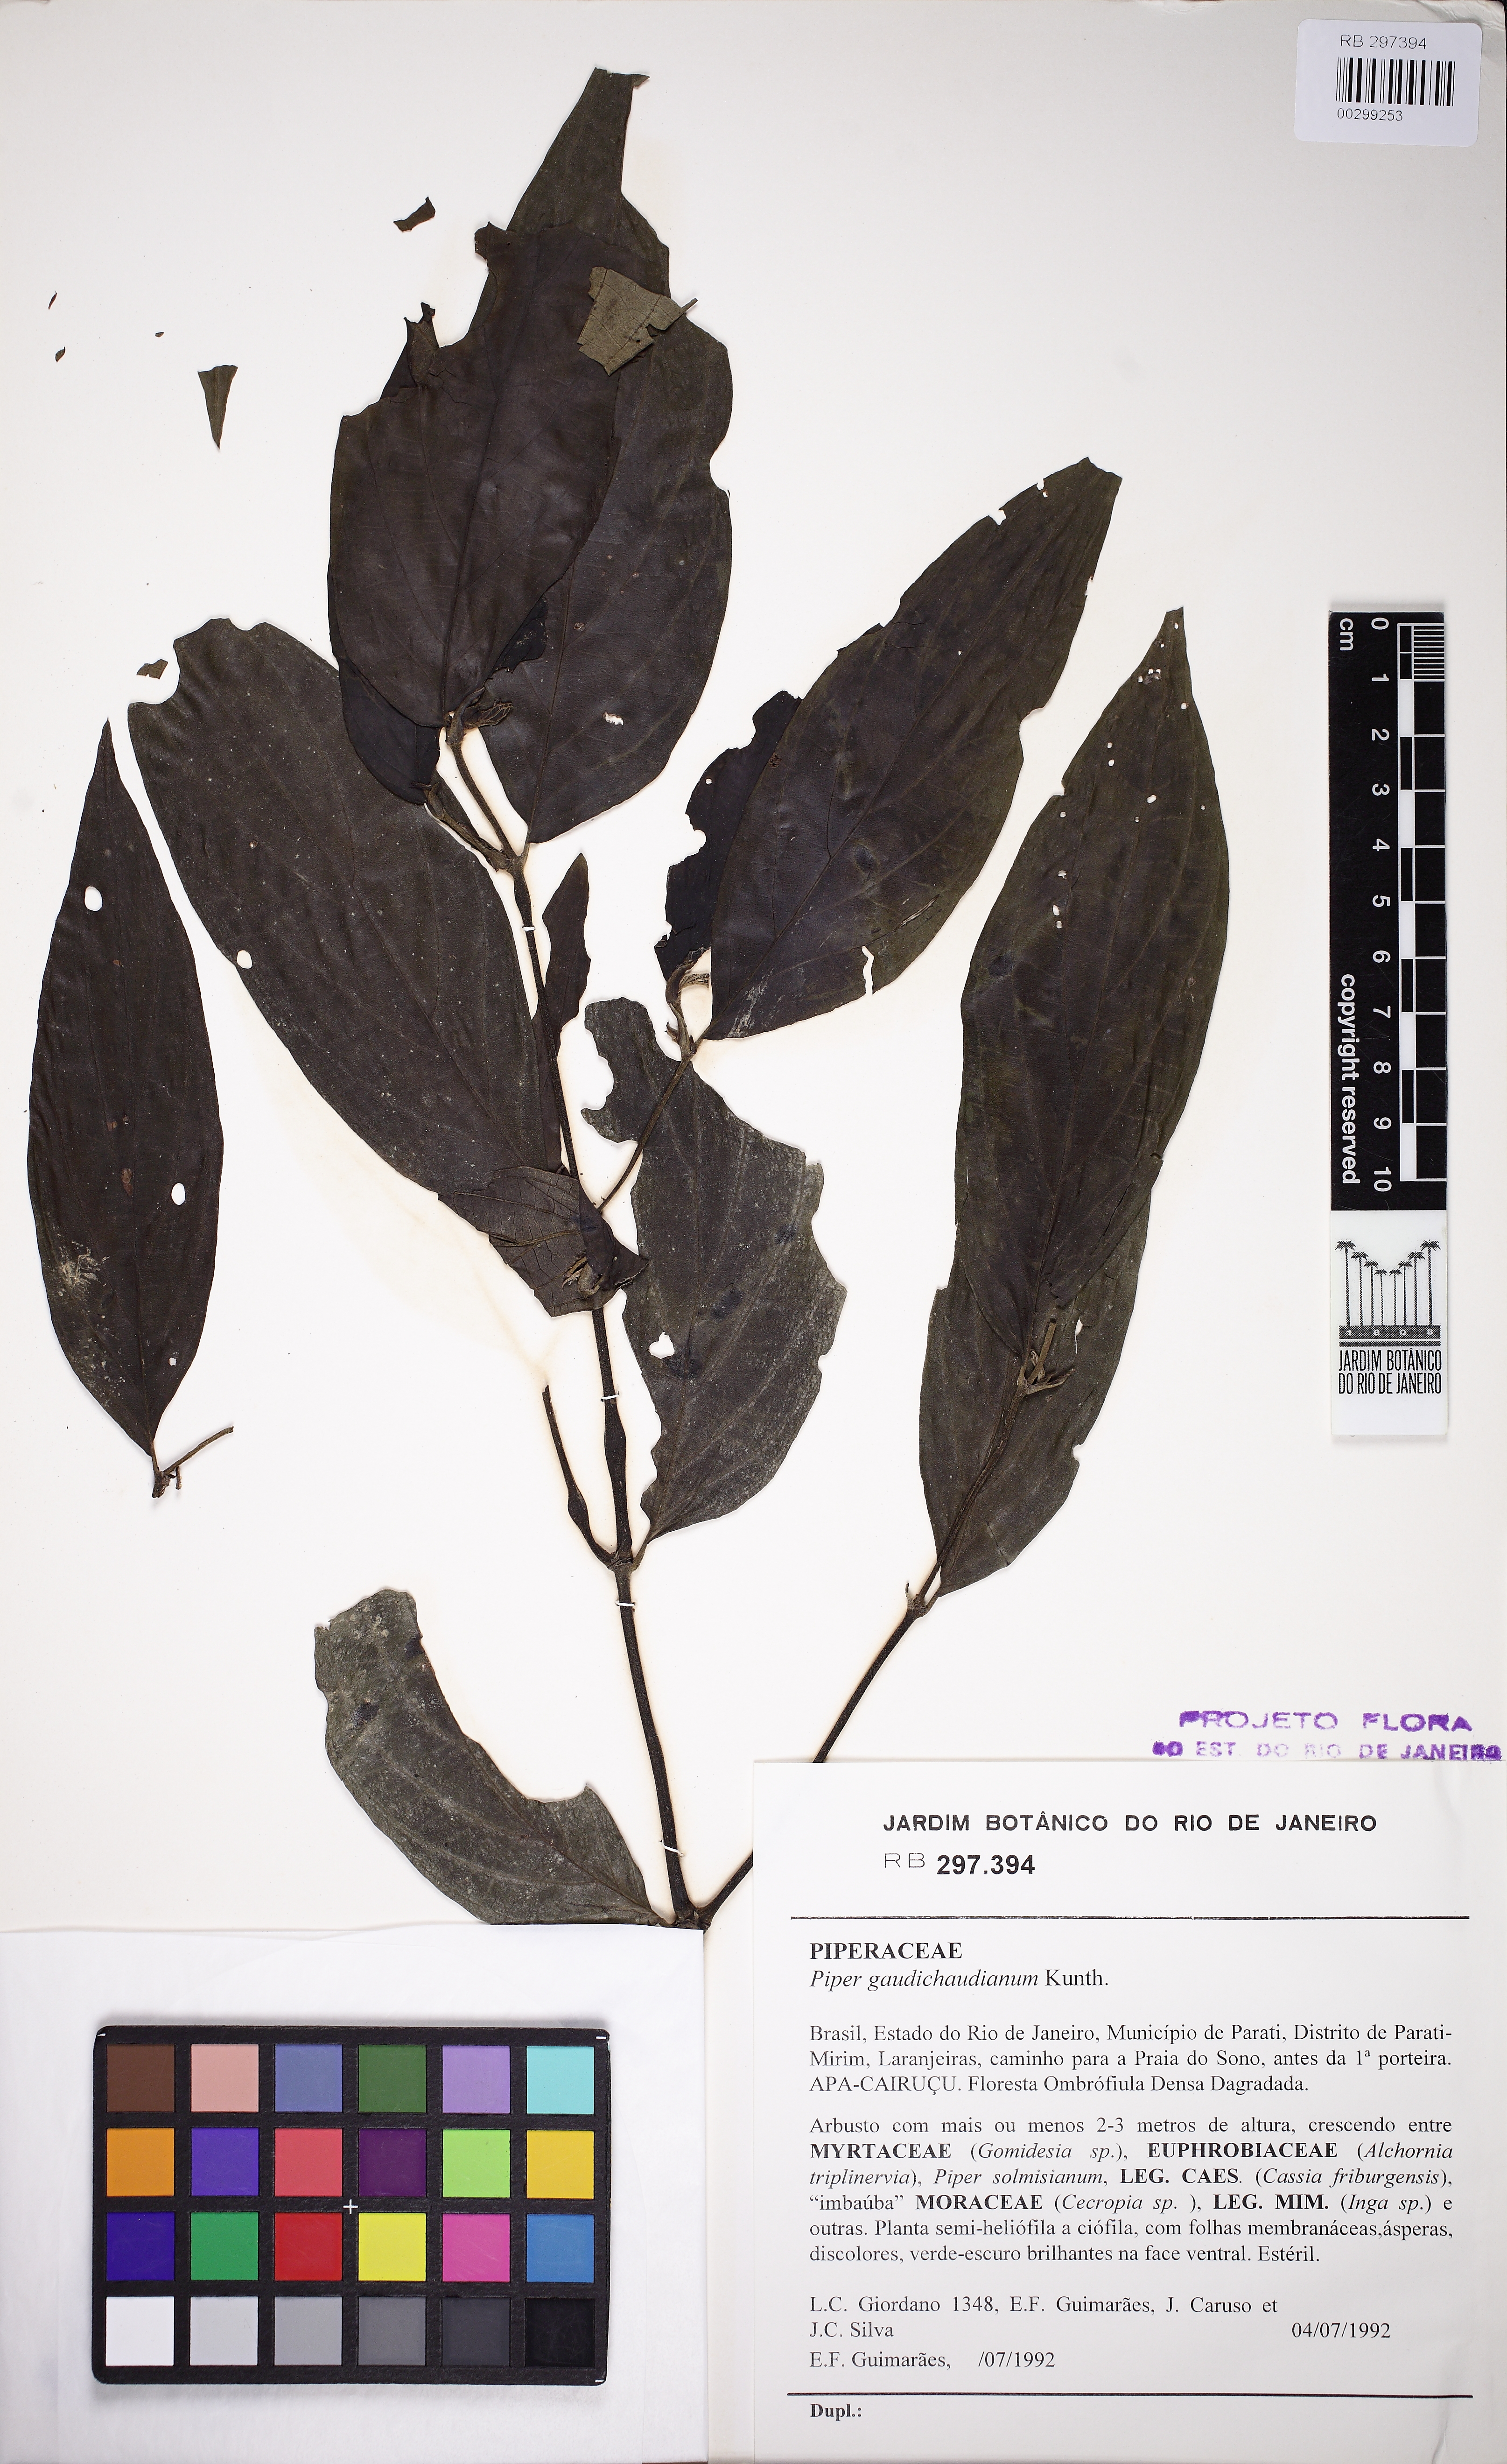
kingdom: Plantae
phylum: Tracheophyta
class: Magnoliopsida
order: Piperales
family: Piperaceae
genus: Piper
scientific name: Piper gaudichaudianum
